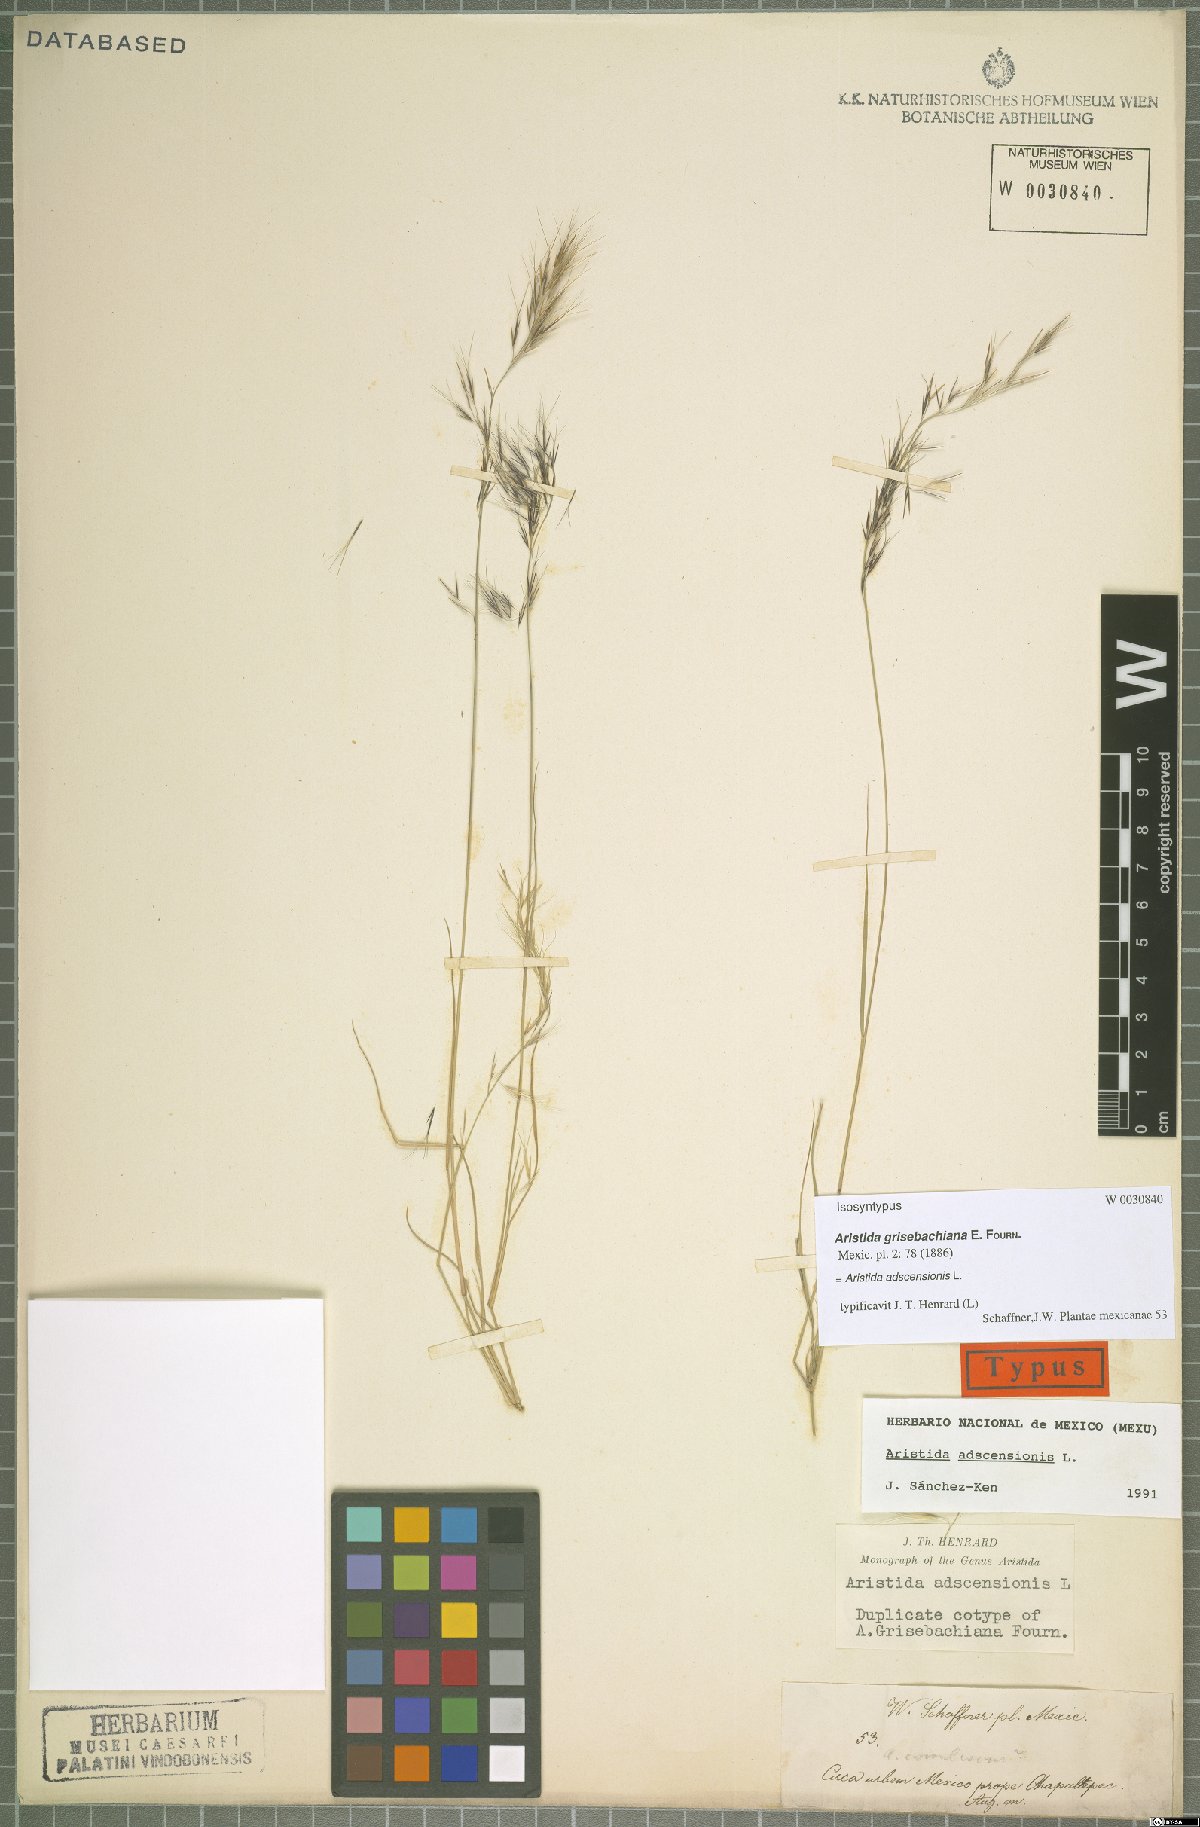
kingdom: Plantae
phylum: Tracheophyta
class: Liliopsida
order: Poales
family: Poaceae
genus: Aristida
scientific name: Aristida adscensionis
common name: Sixweeks threeawn
